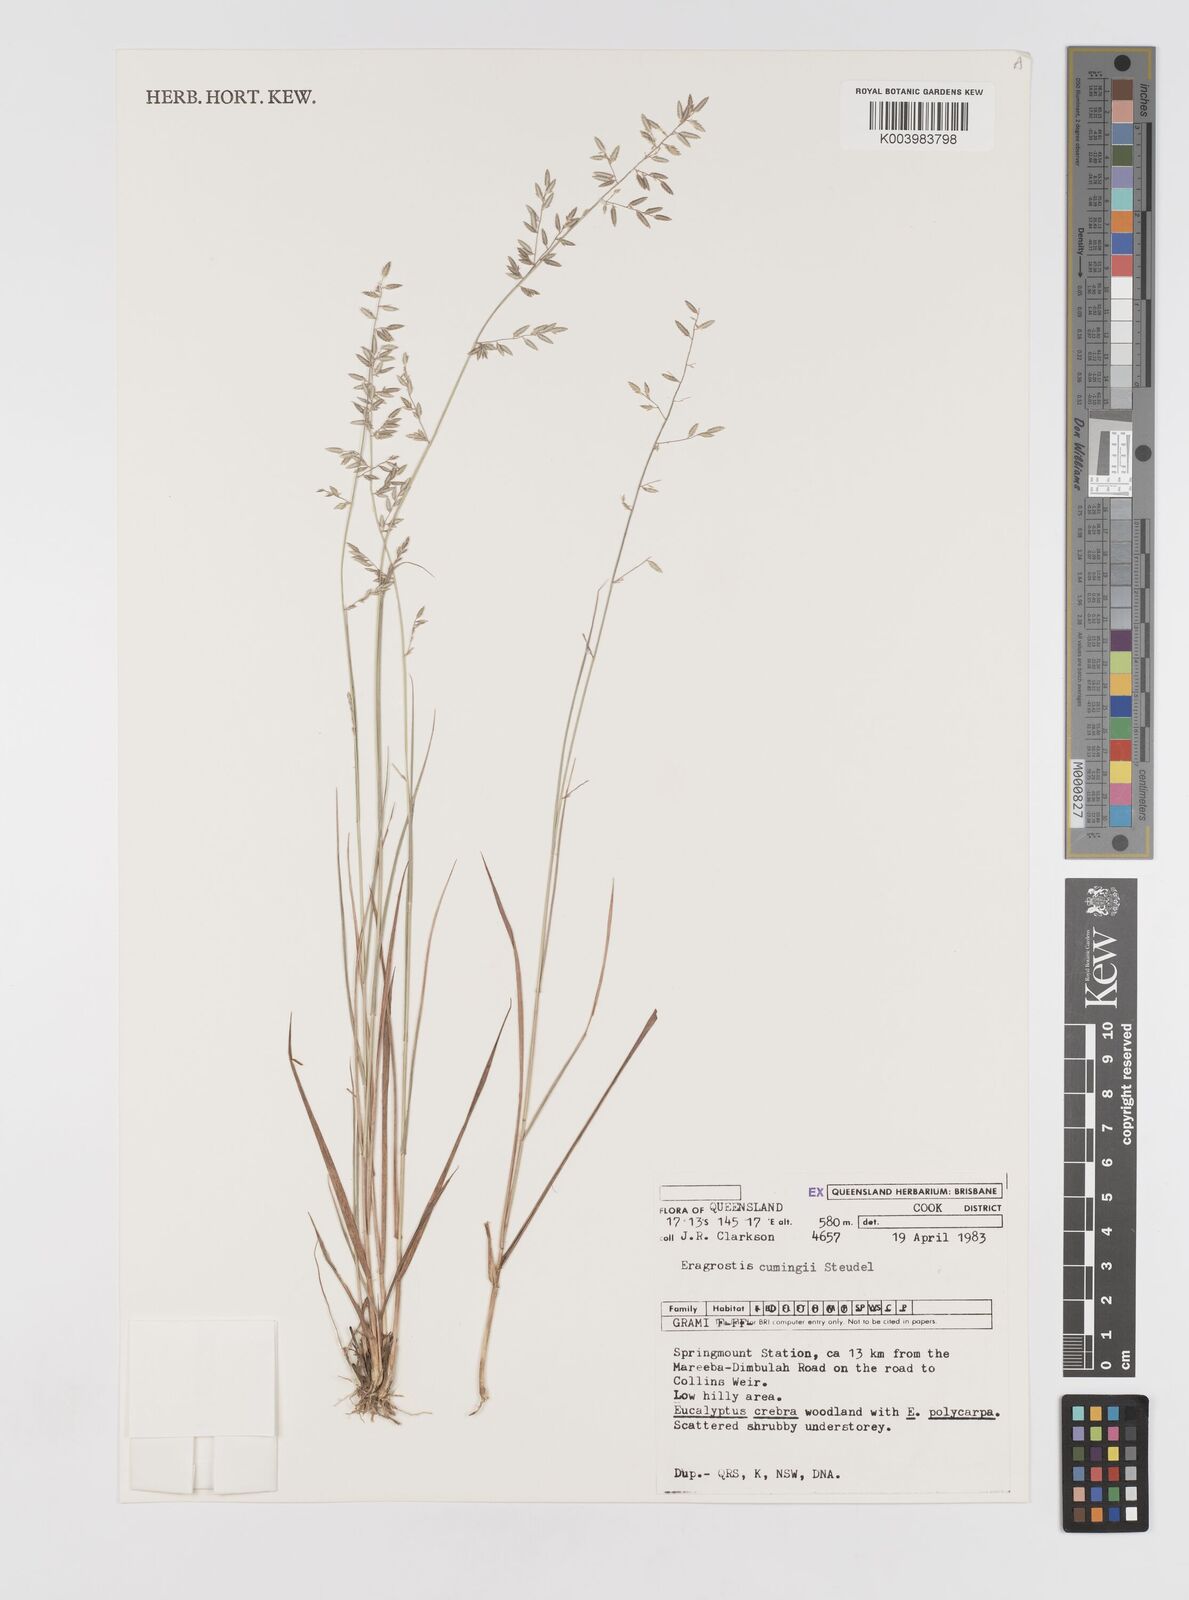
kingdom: Plantae
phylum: Tracheophyta
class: Liliopsida
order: Poales
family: Poaceae
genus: Eragrostis
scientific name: Eragrostis cumingii
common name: Cuming's lovegrass
